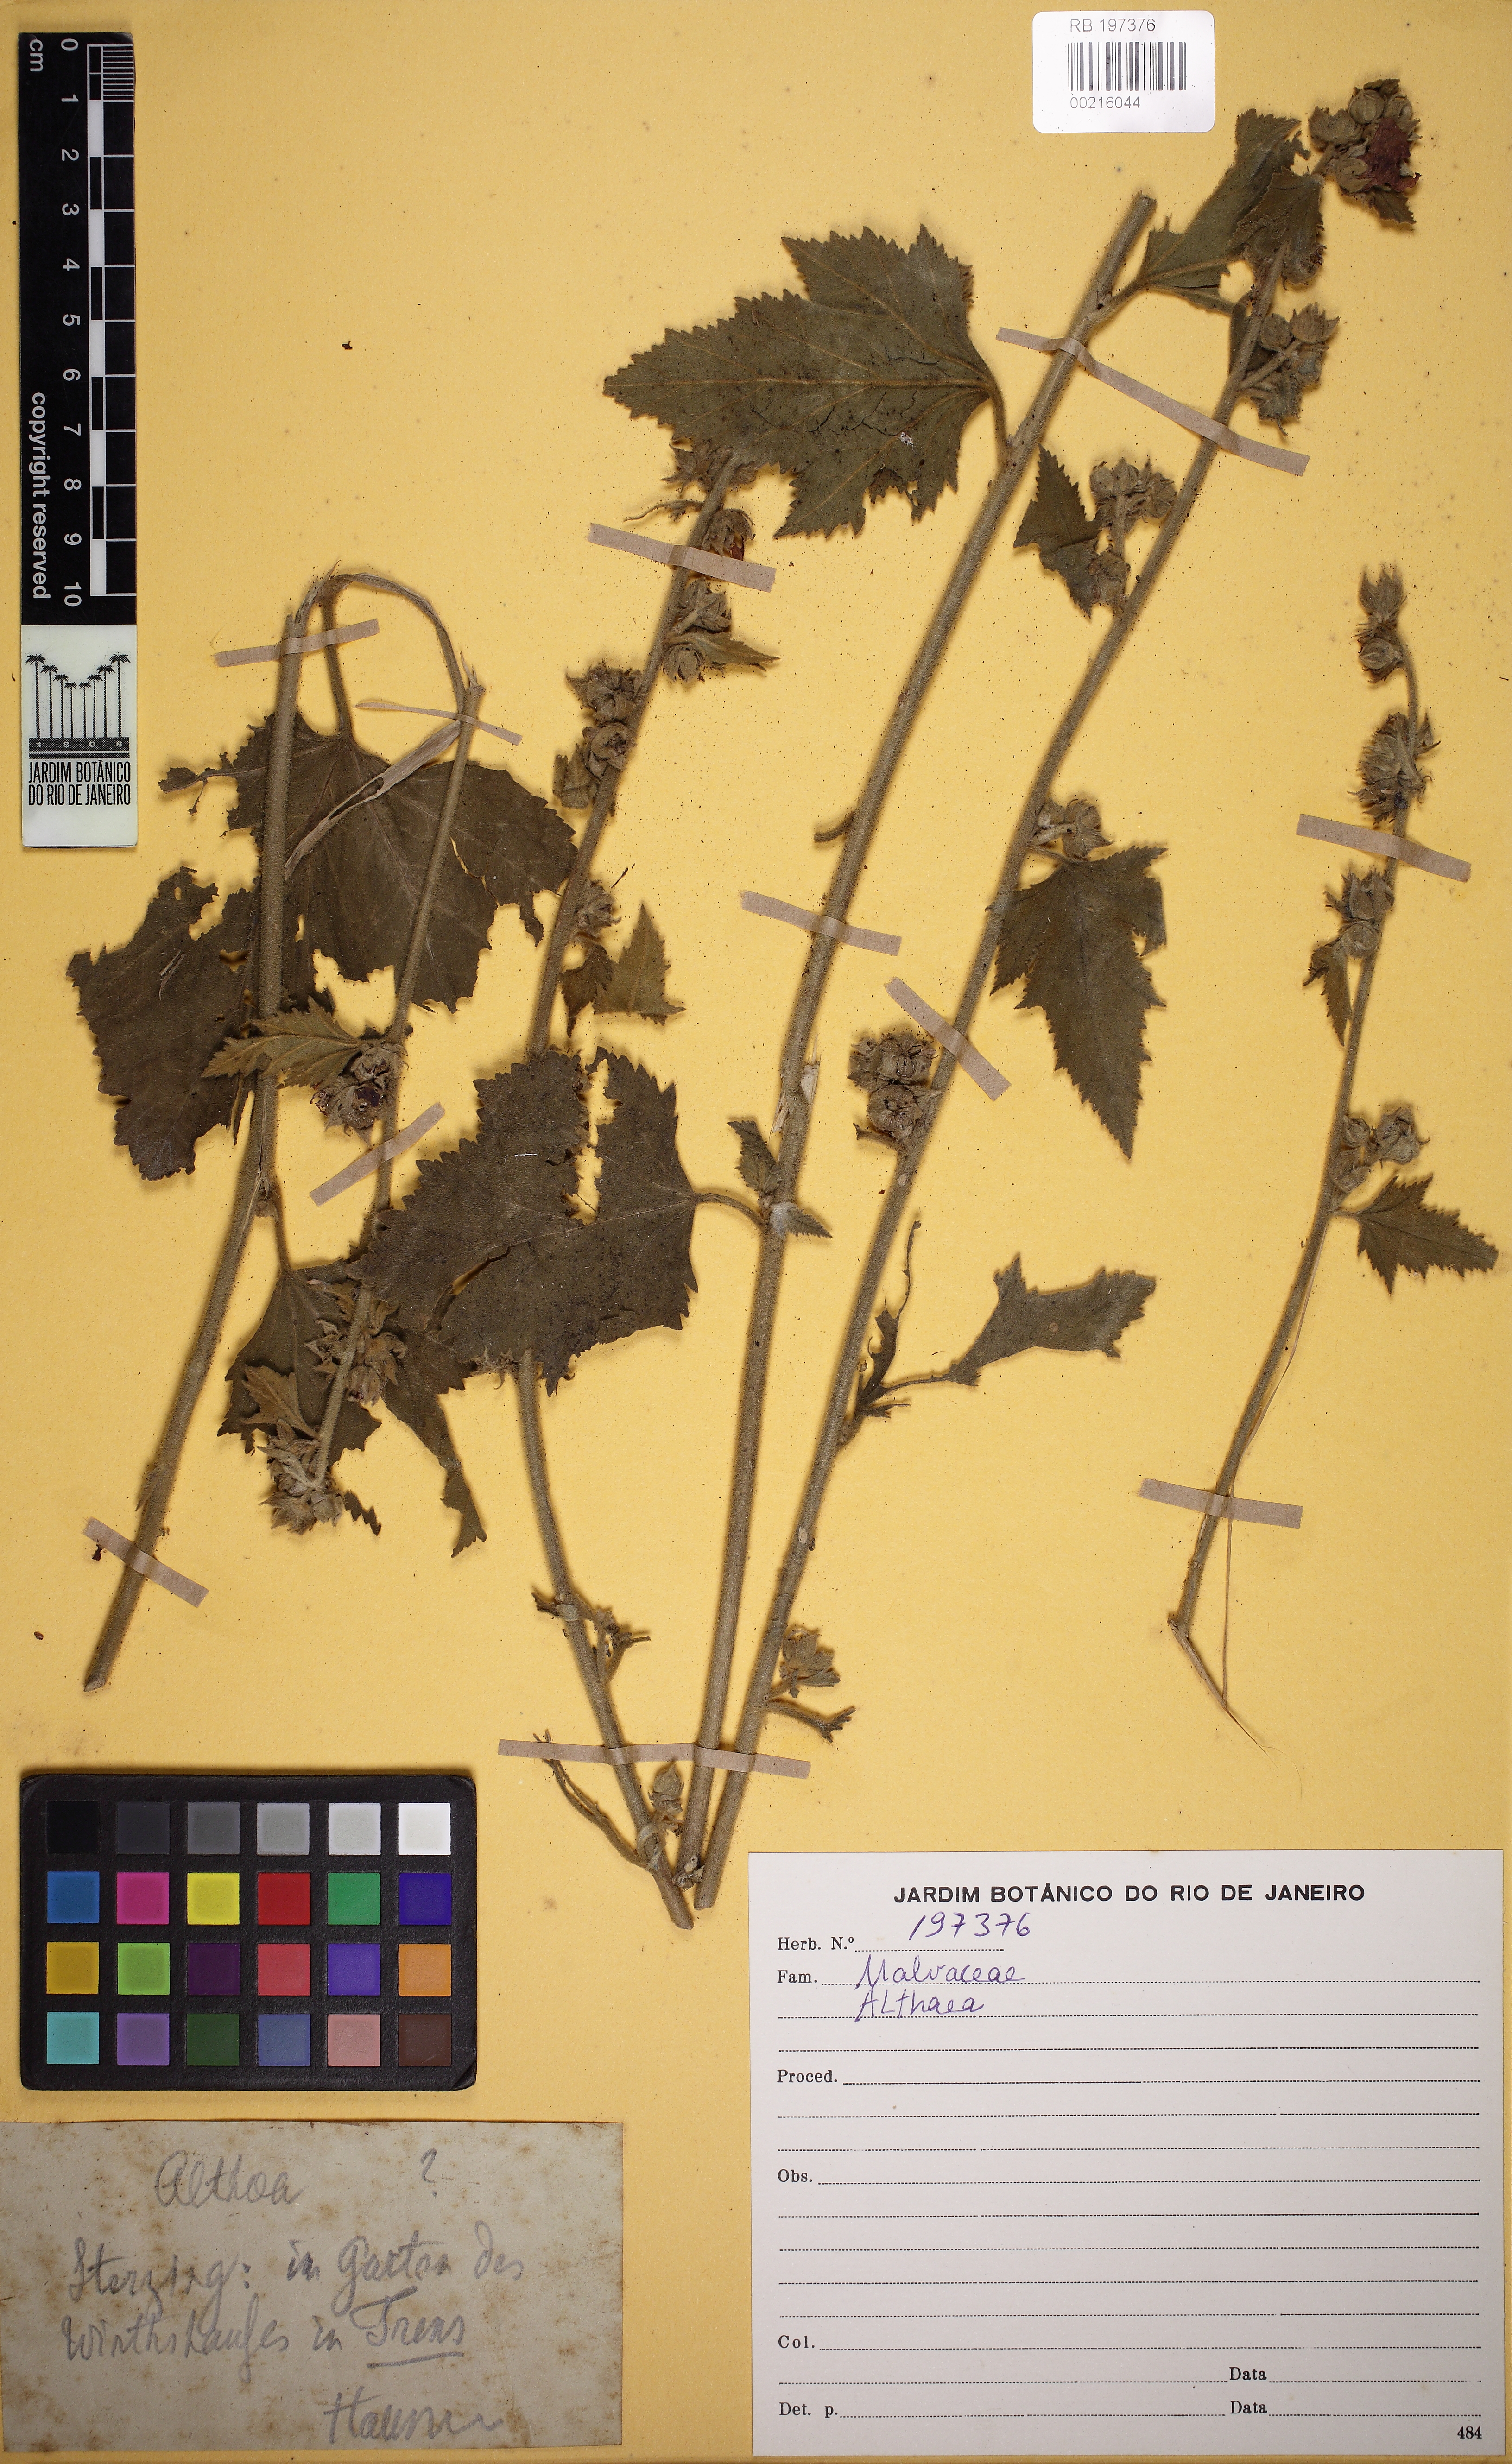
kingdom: Plantae
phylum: Tracheophyta
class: Magnoliopsida
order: Malvales
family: Malvaceae
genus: Althaea
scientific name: Althaea
